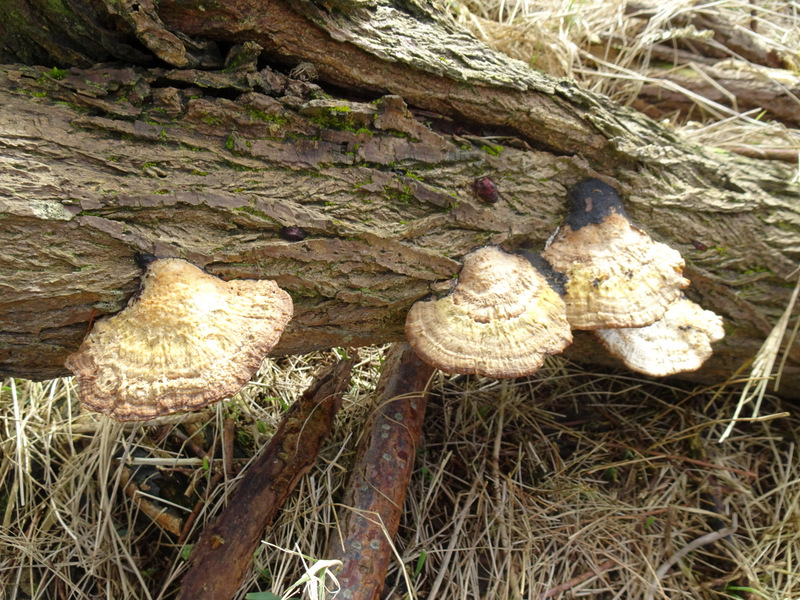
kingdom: Fungi
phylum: Basidiomycota
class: Agaricomycetes
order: Polyporales
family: Polyporaceae
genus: Daedaleopsis
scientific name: Daedaleopsis confragosa
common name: rødmende læderporesvamp
